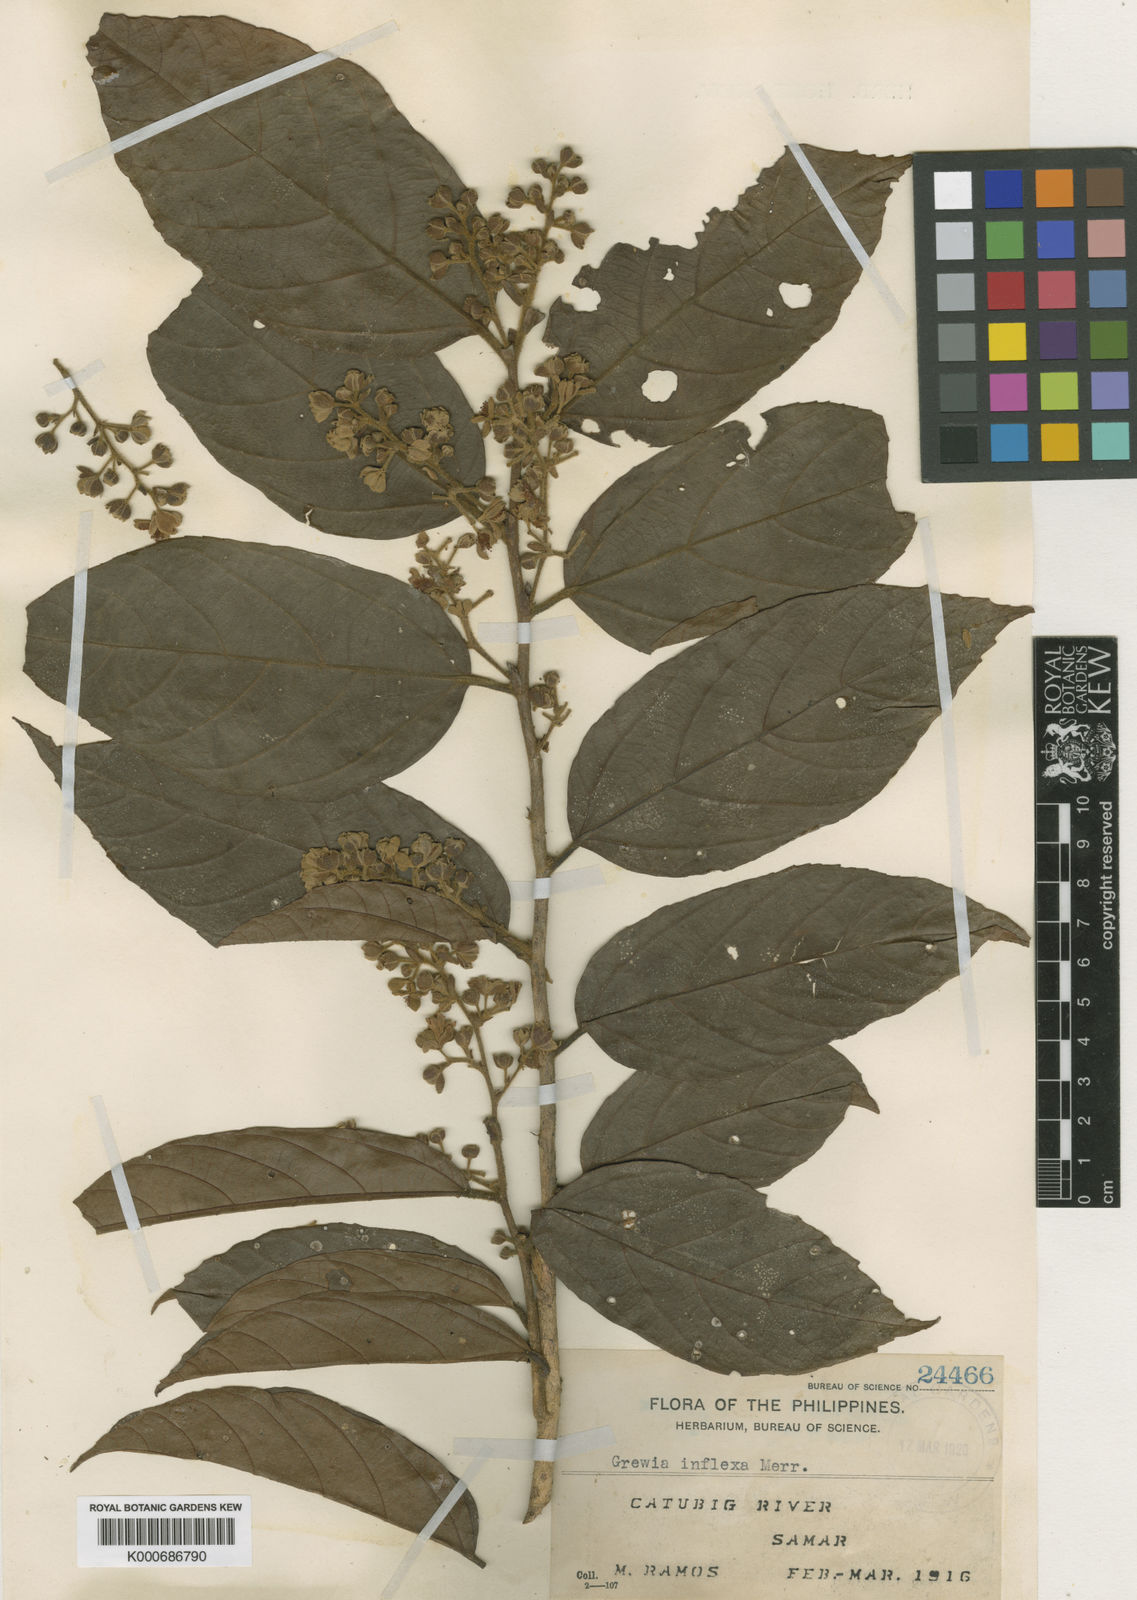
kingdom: Plantae
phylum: Tracheophyta
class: Magnoliopsida
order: Malvales
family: Malvaceae
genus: Microcos
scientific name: Microcos inflexa
